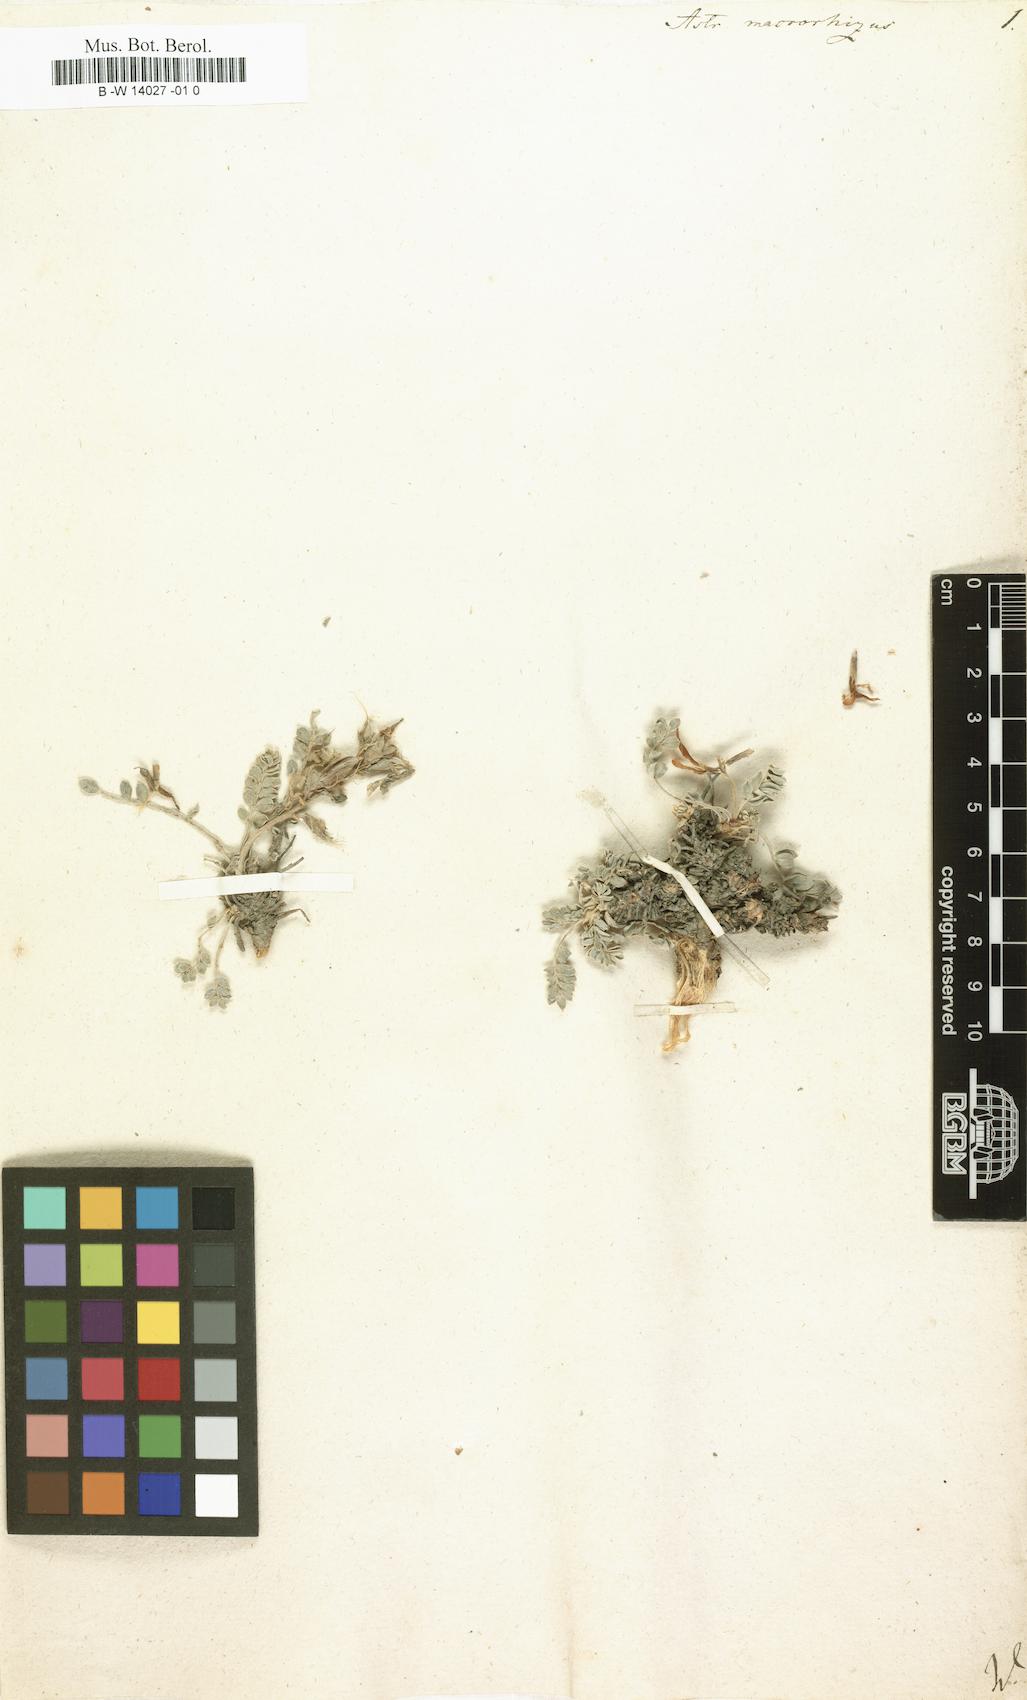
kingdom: Plantae
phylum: Tracheophyta
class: Magnoliopsida
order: Fabales
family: Fabaceae
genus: Phyllolobium
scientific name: Phyllolobium donianum
